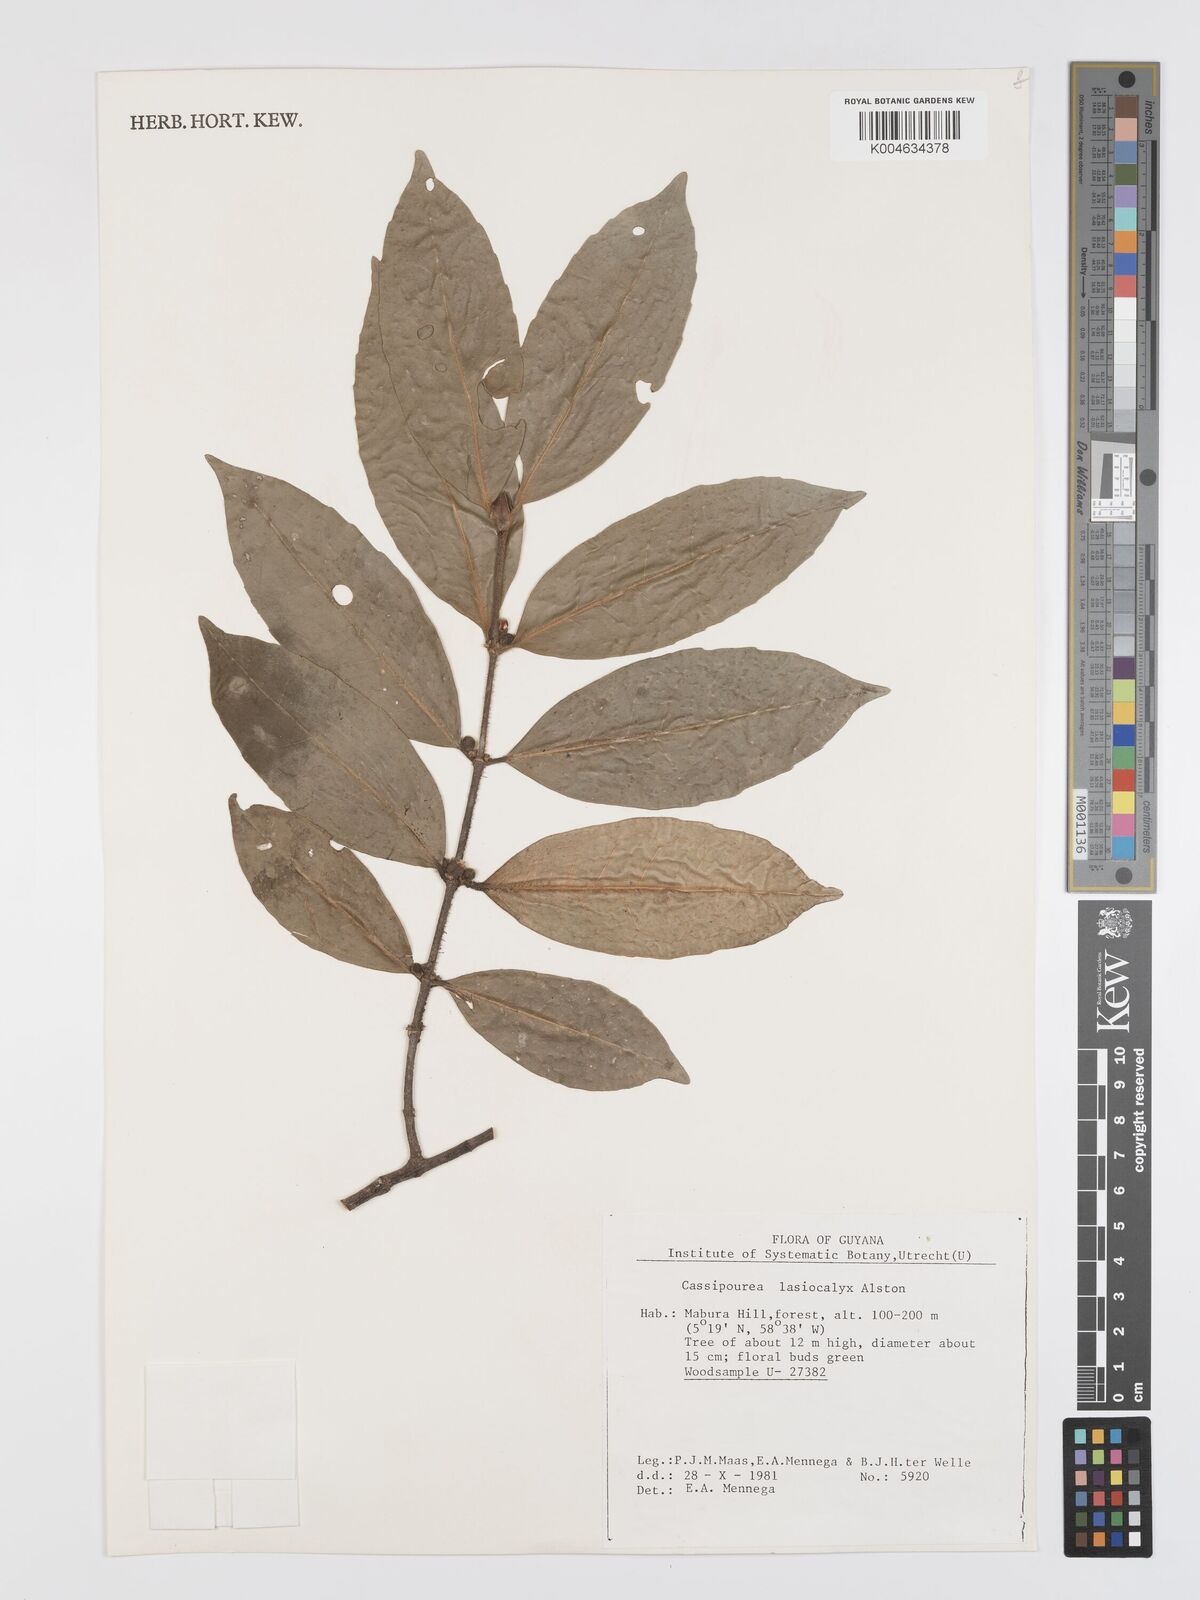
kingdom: Plantae
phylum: Tracheophyta
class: Magnoliopsida
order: Malpighiales
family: Rhizophoraceae
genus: Cassipourea
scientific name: Cassipourea lasiocalyx
